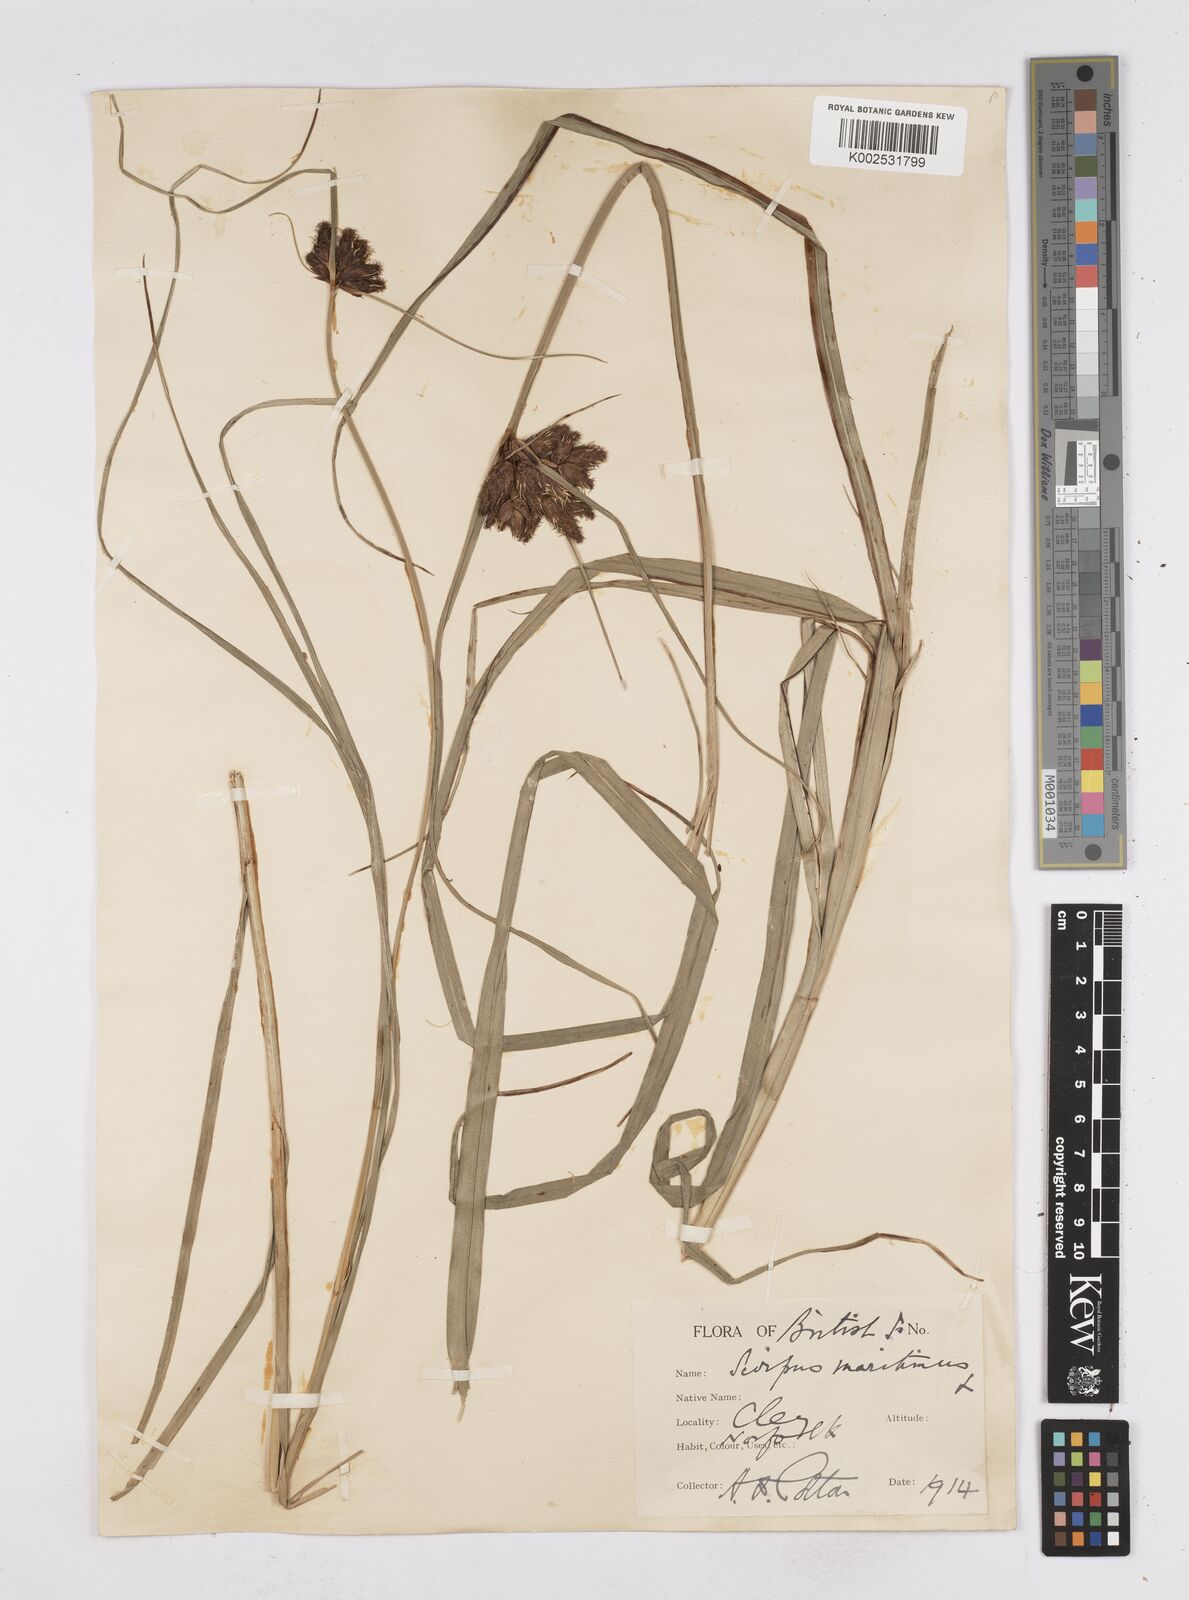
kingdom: Plantae
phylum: Tracheophyta
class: Liliopsida
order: Poales
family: Cyperaceae
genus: Bolboschoenus
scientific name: Bolboschoenus maritimus
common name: Sea club-rush
